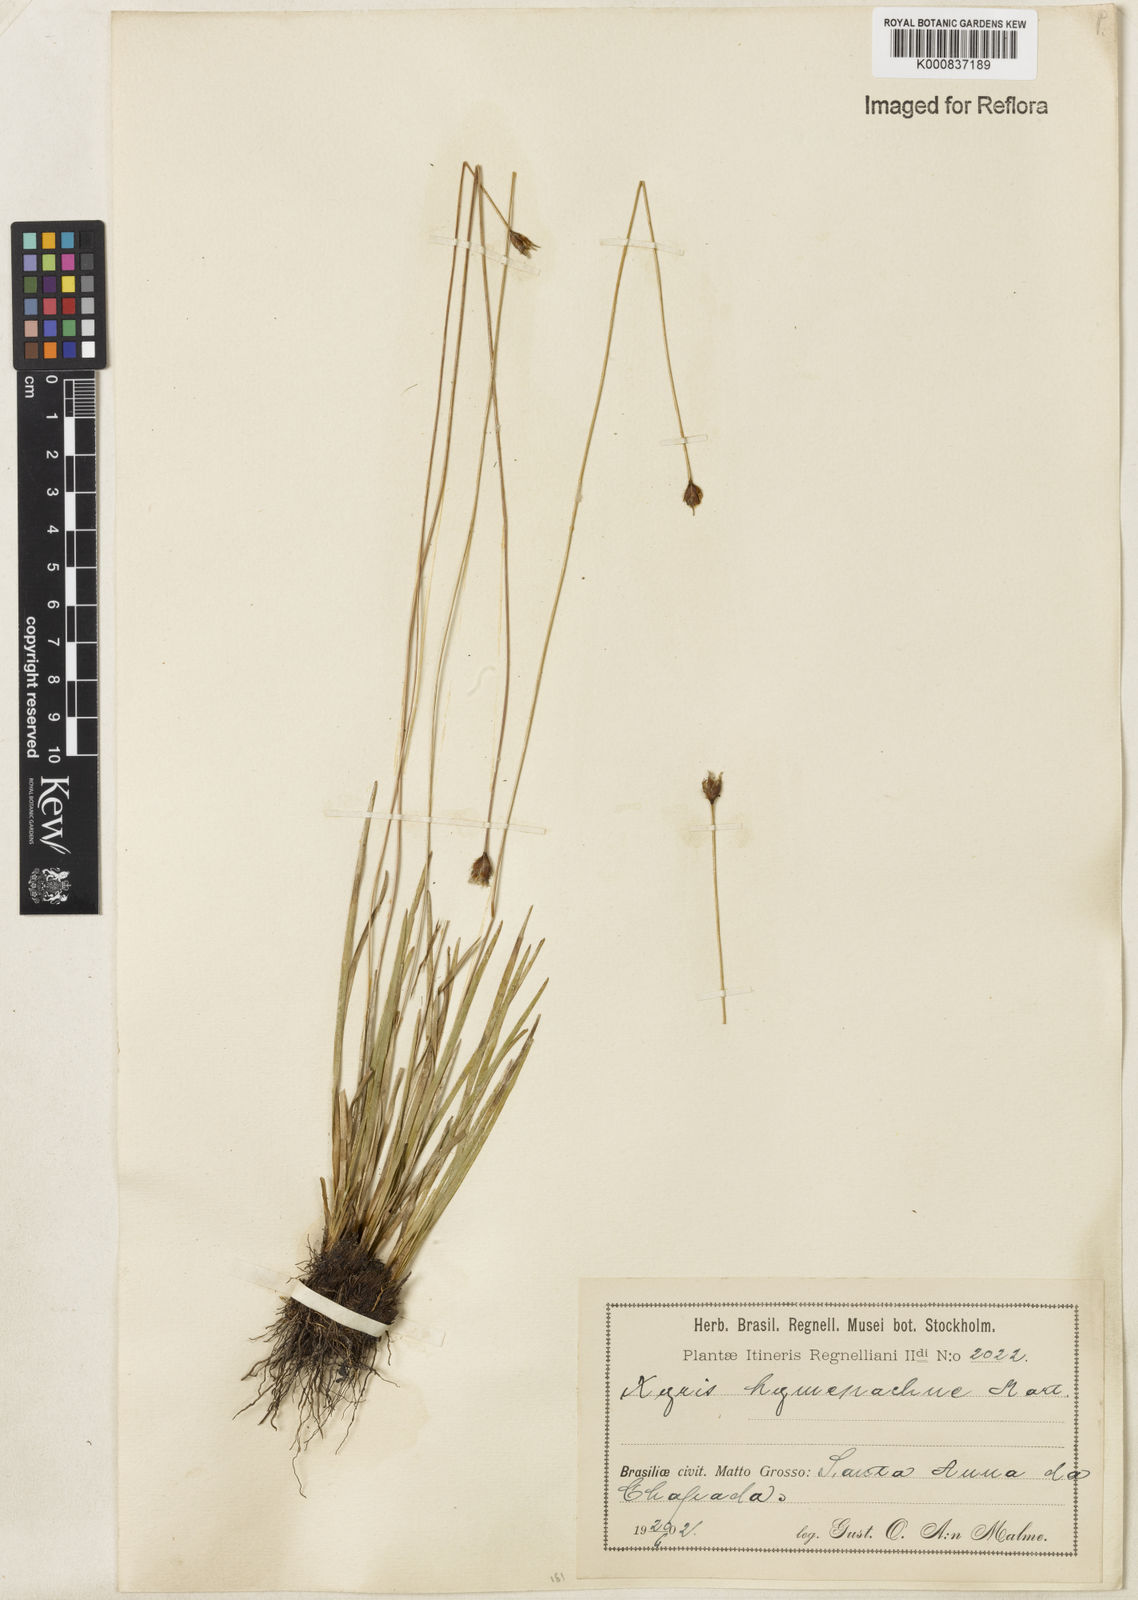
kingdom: Plantae
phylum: Tracheophyta
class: Liliopsida
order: Poales
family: Xyridaceae
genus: Xyris
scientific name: Xyris hymenachne
